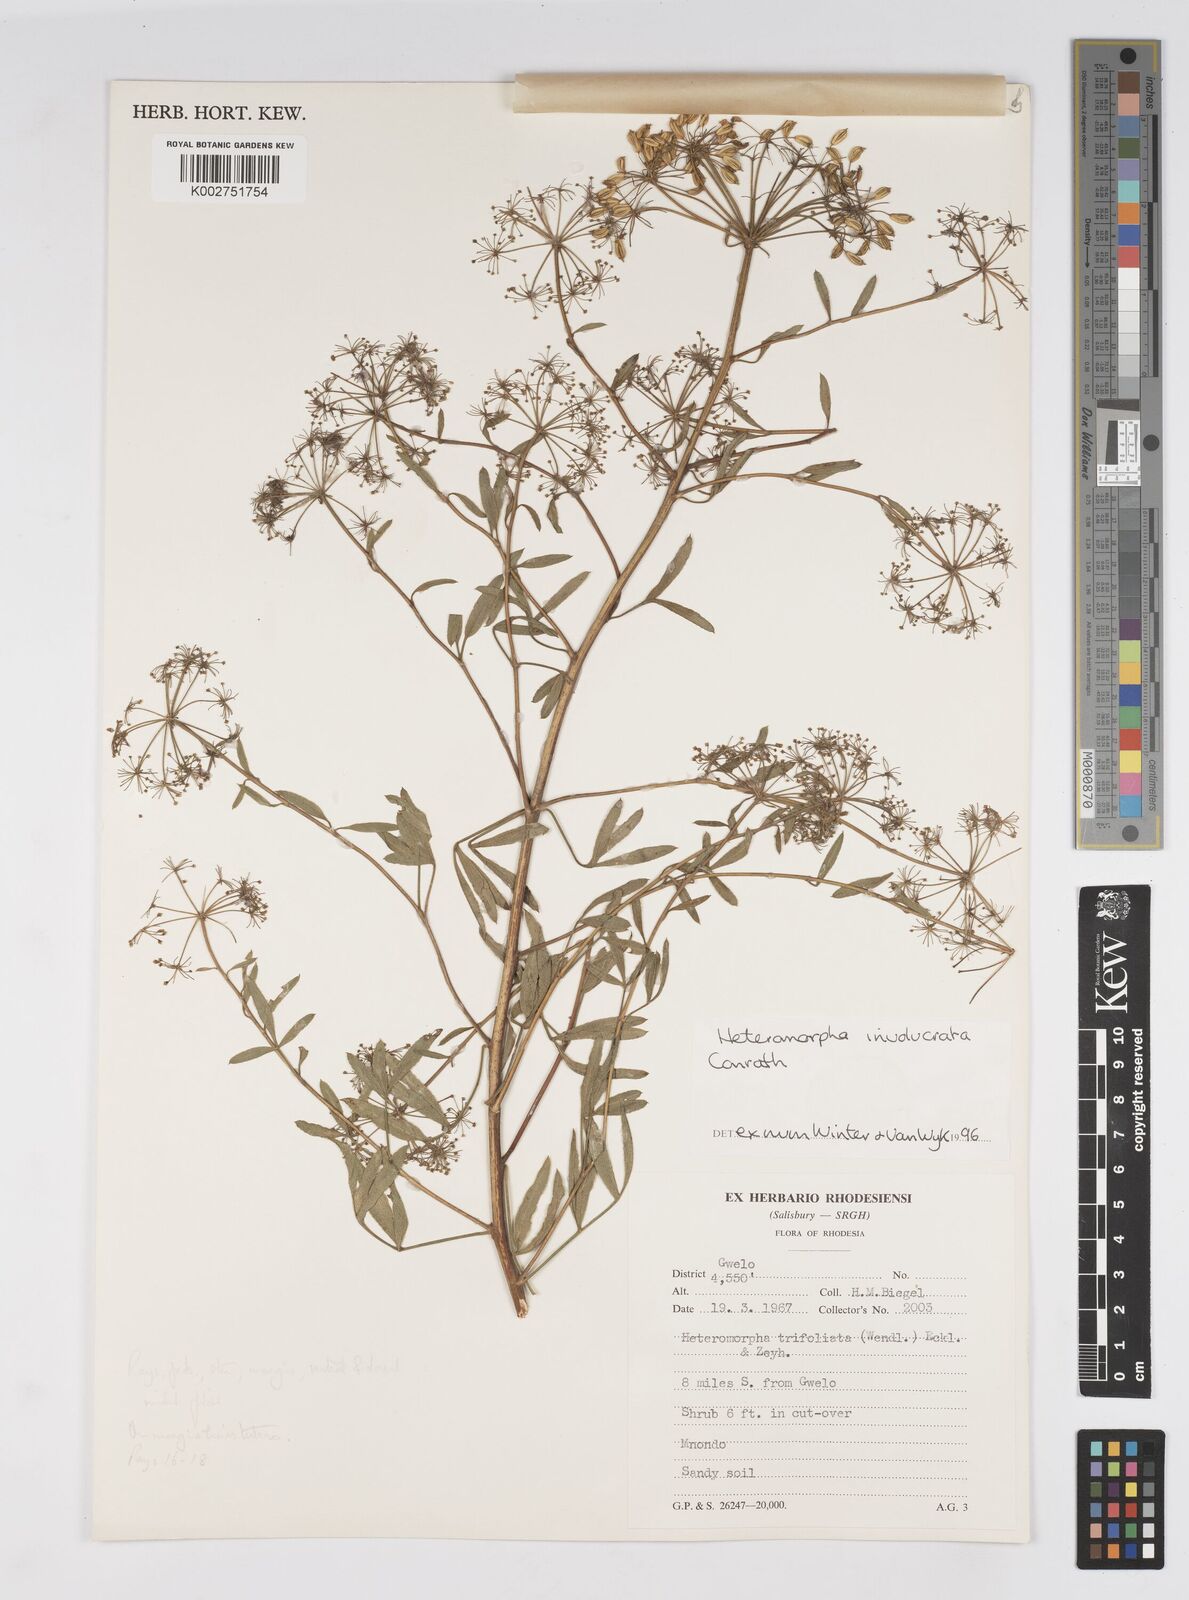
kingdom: Plantae
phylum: Tracheophyta
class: Magnoliopsida
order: Apiales
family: Apiaceae
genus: Heteromorpha
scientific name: Heteromorpha involucrata
